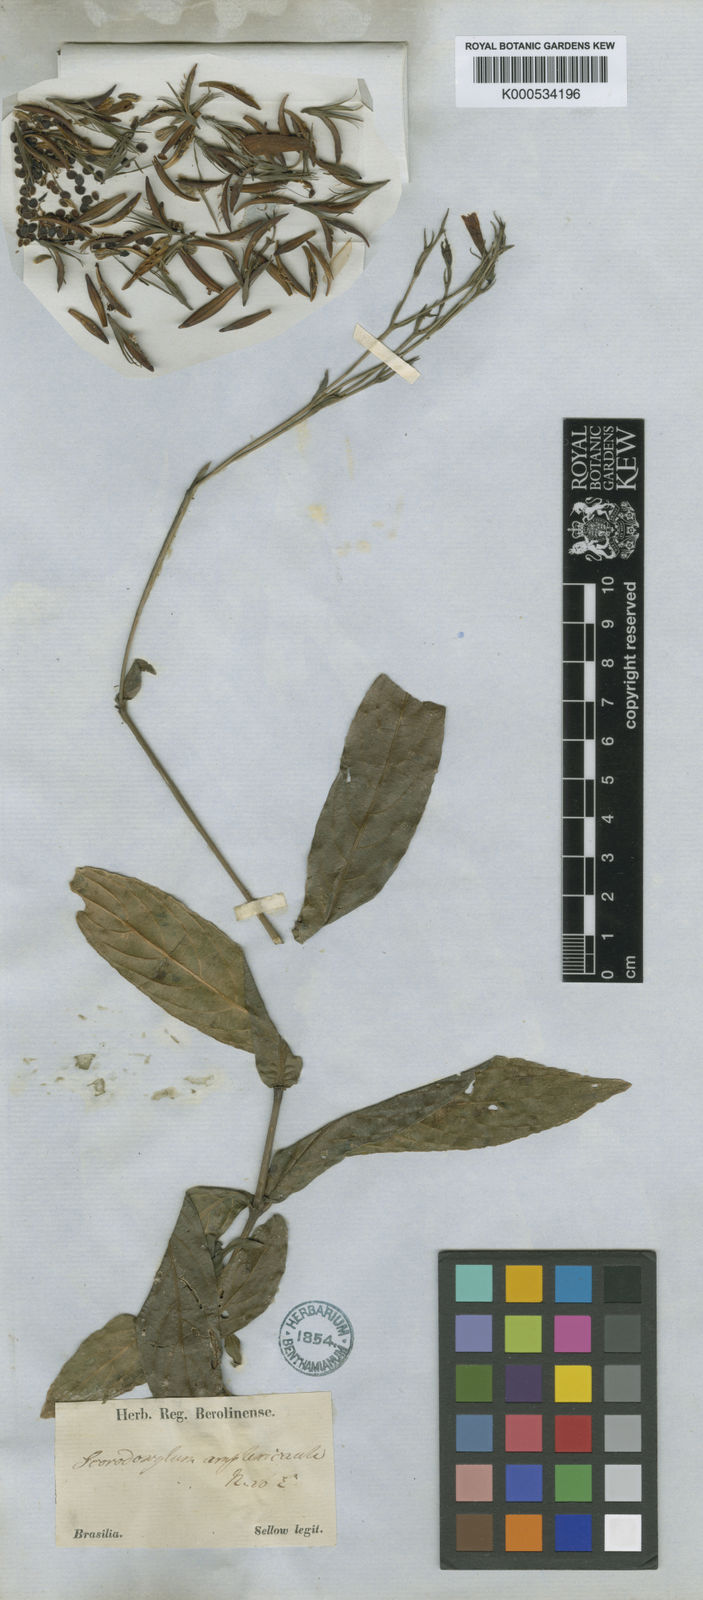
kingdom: Plantae
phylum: Tracheophyta
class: Magnoliopsida
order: Lamiales
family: Acanthaceae
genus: Ruellia
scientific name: Ruellia angustiflora
